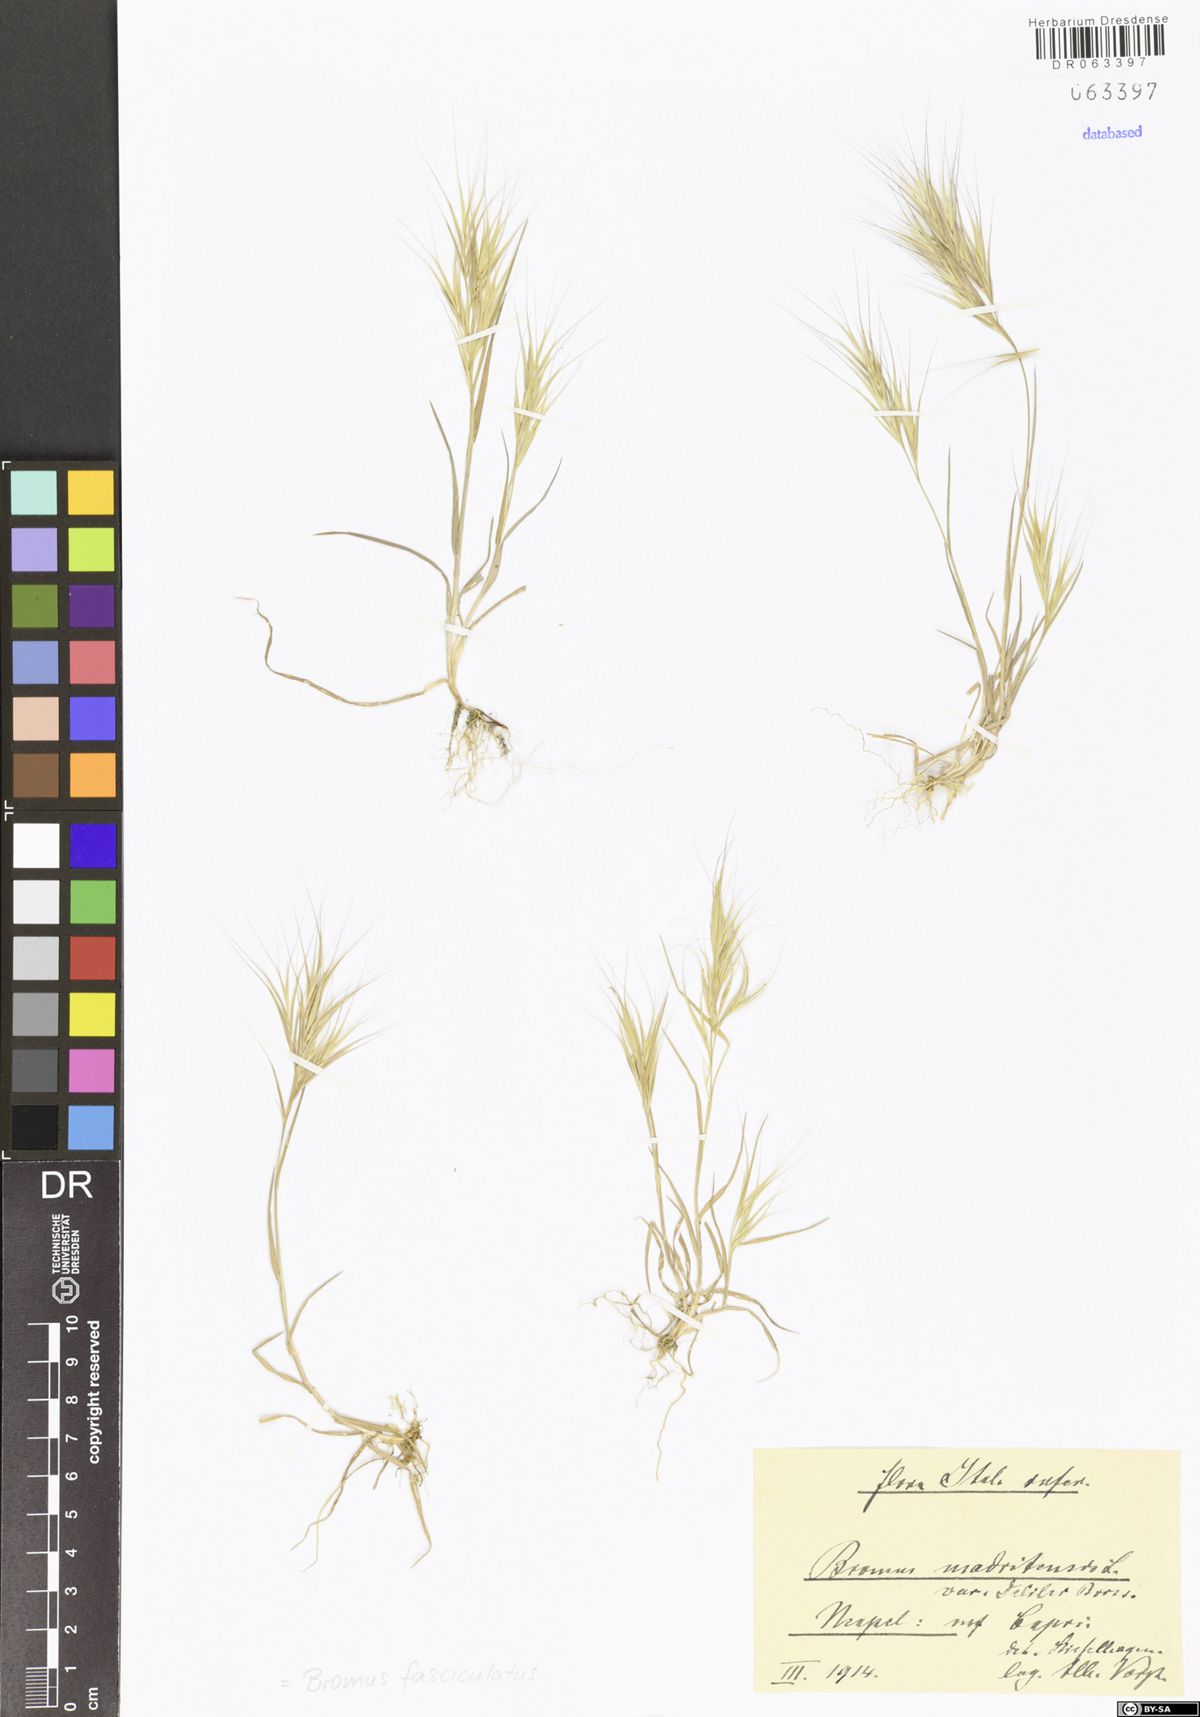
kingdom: Plantae
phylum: Tracheophyta
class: Liliopsida
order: Poales
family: Poaceae
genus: Bromus
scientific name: Bromus fasciculatus
